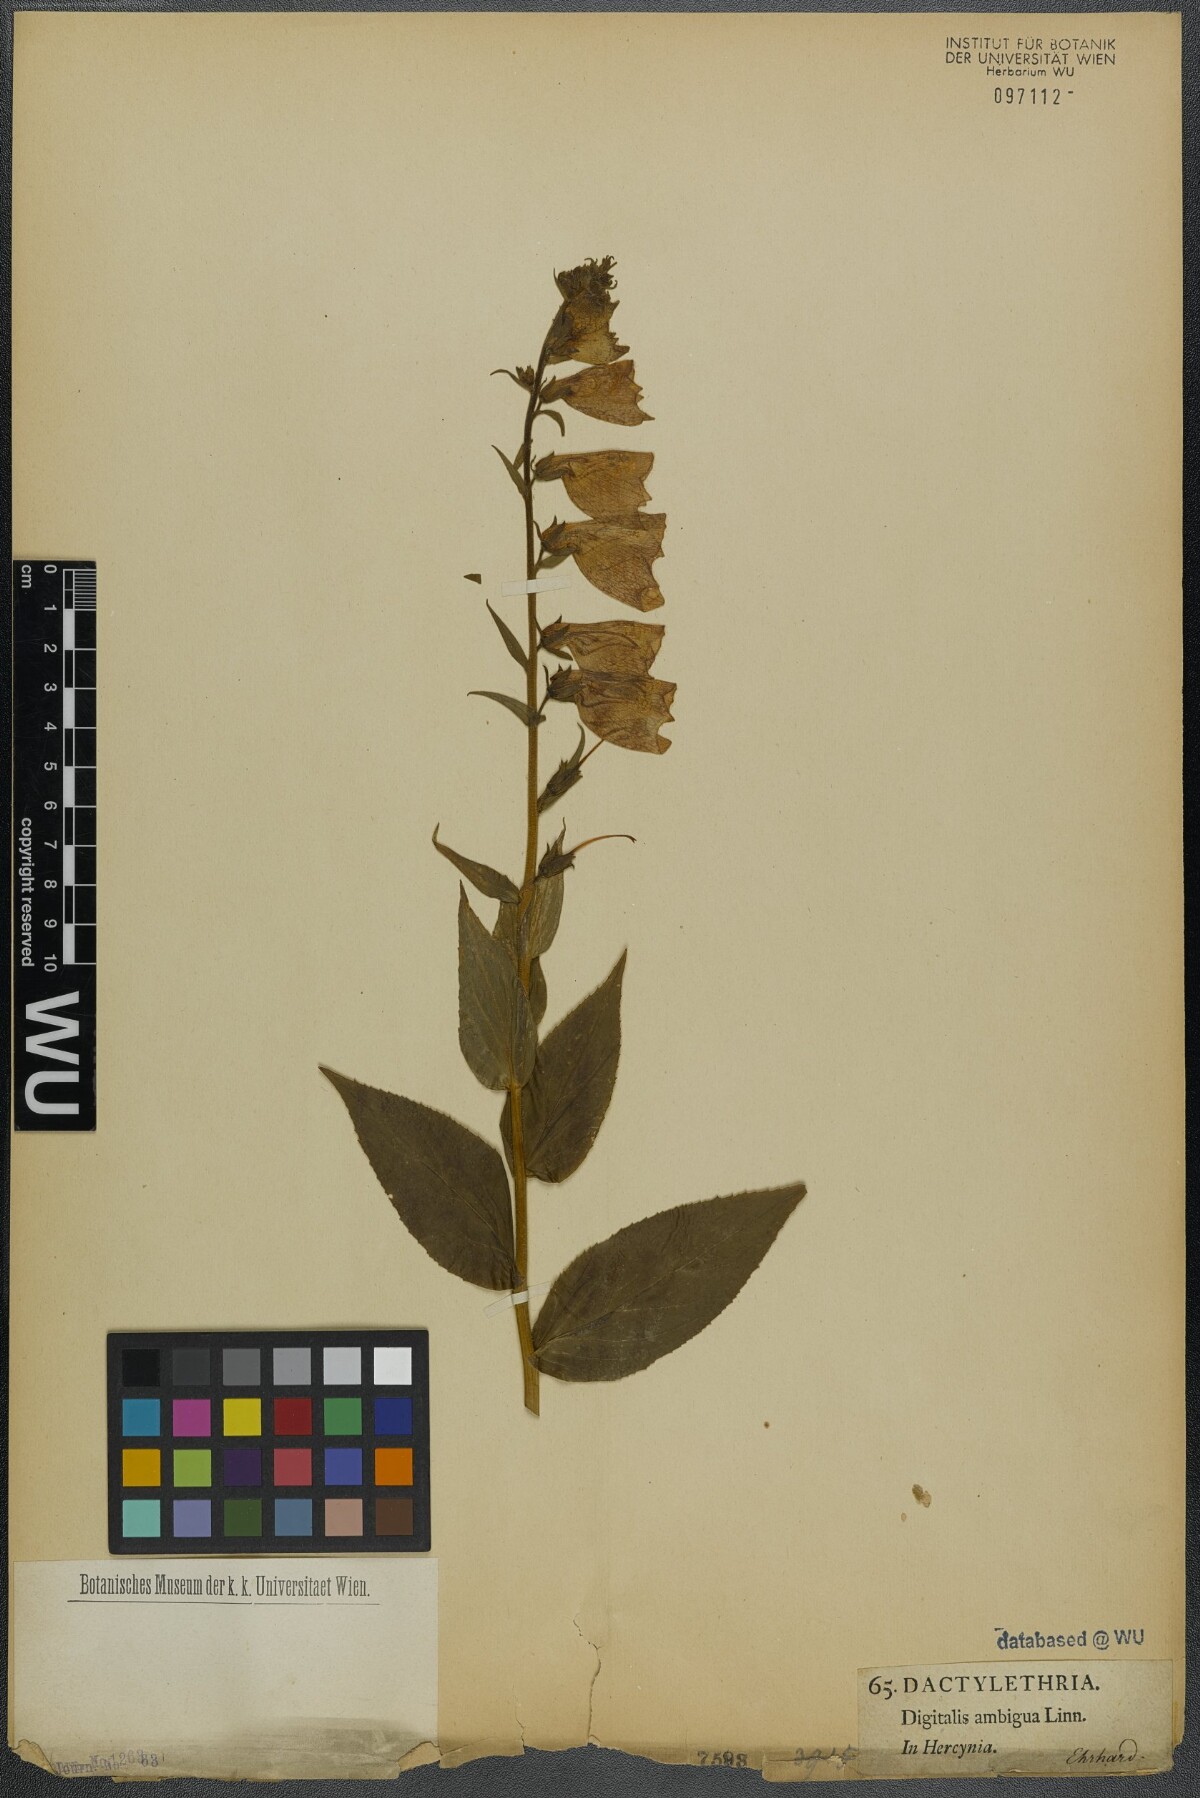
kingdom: Plantae
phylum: Tracheophyta
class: Magnoliopsida
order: Lamiales
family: Plantaginaceae
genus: Digitalis
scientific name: Digitalis grandiflora
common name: Yellow foxglove
